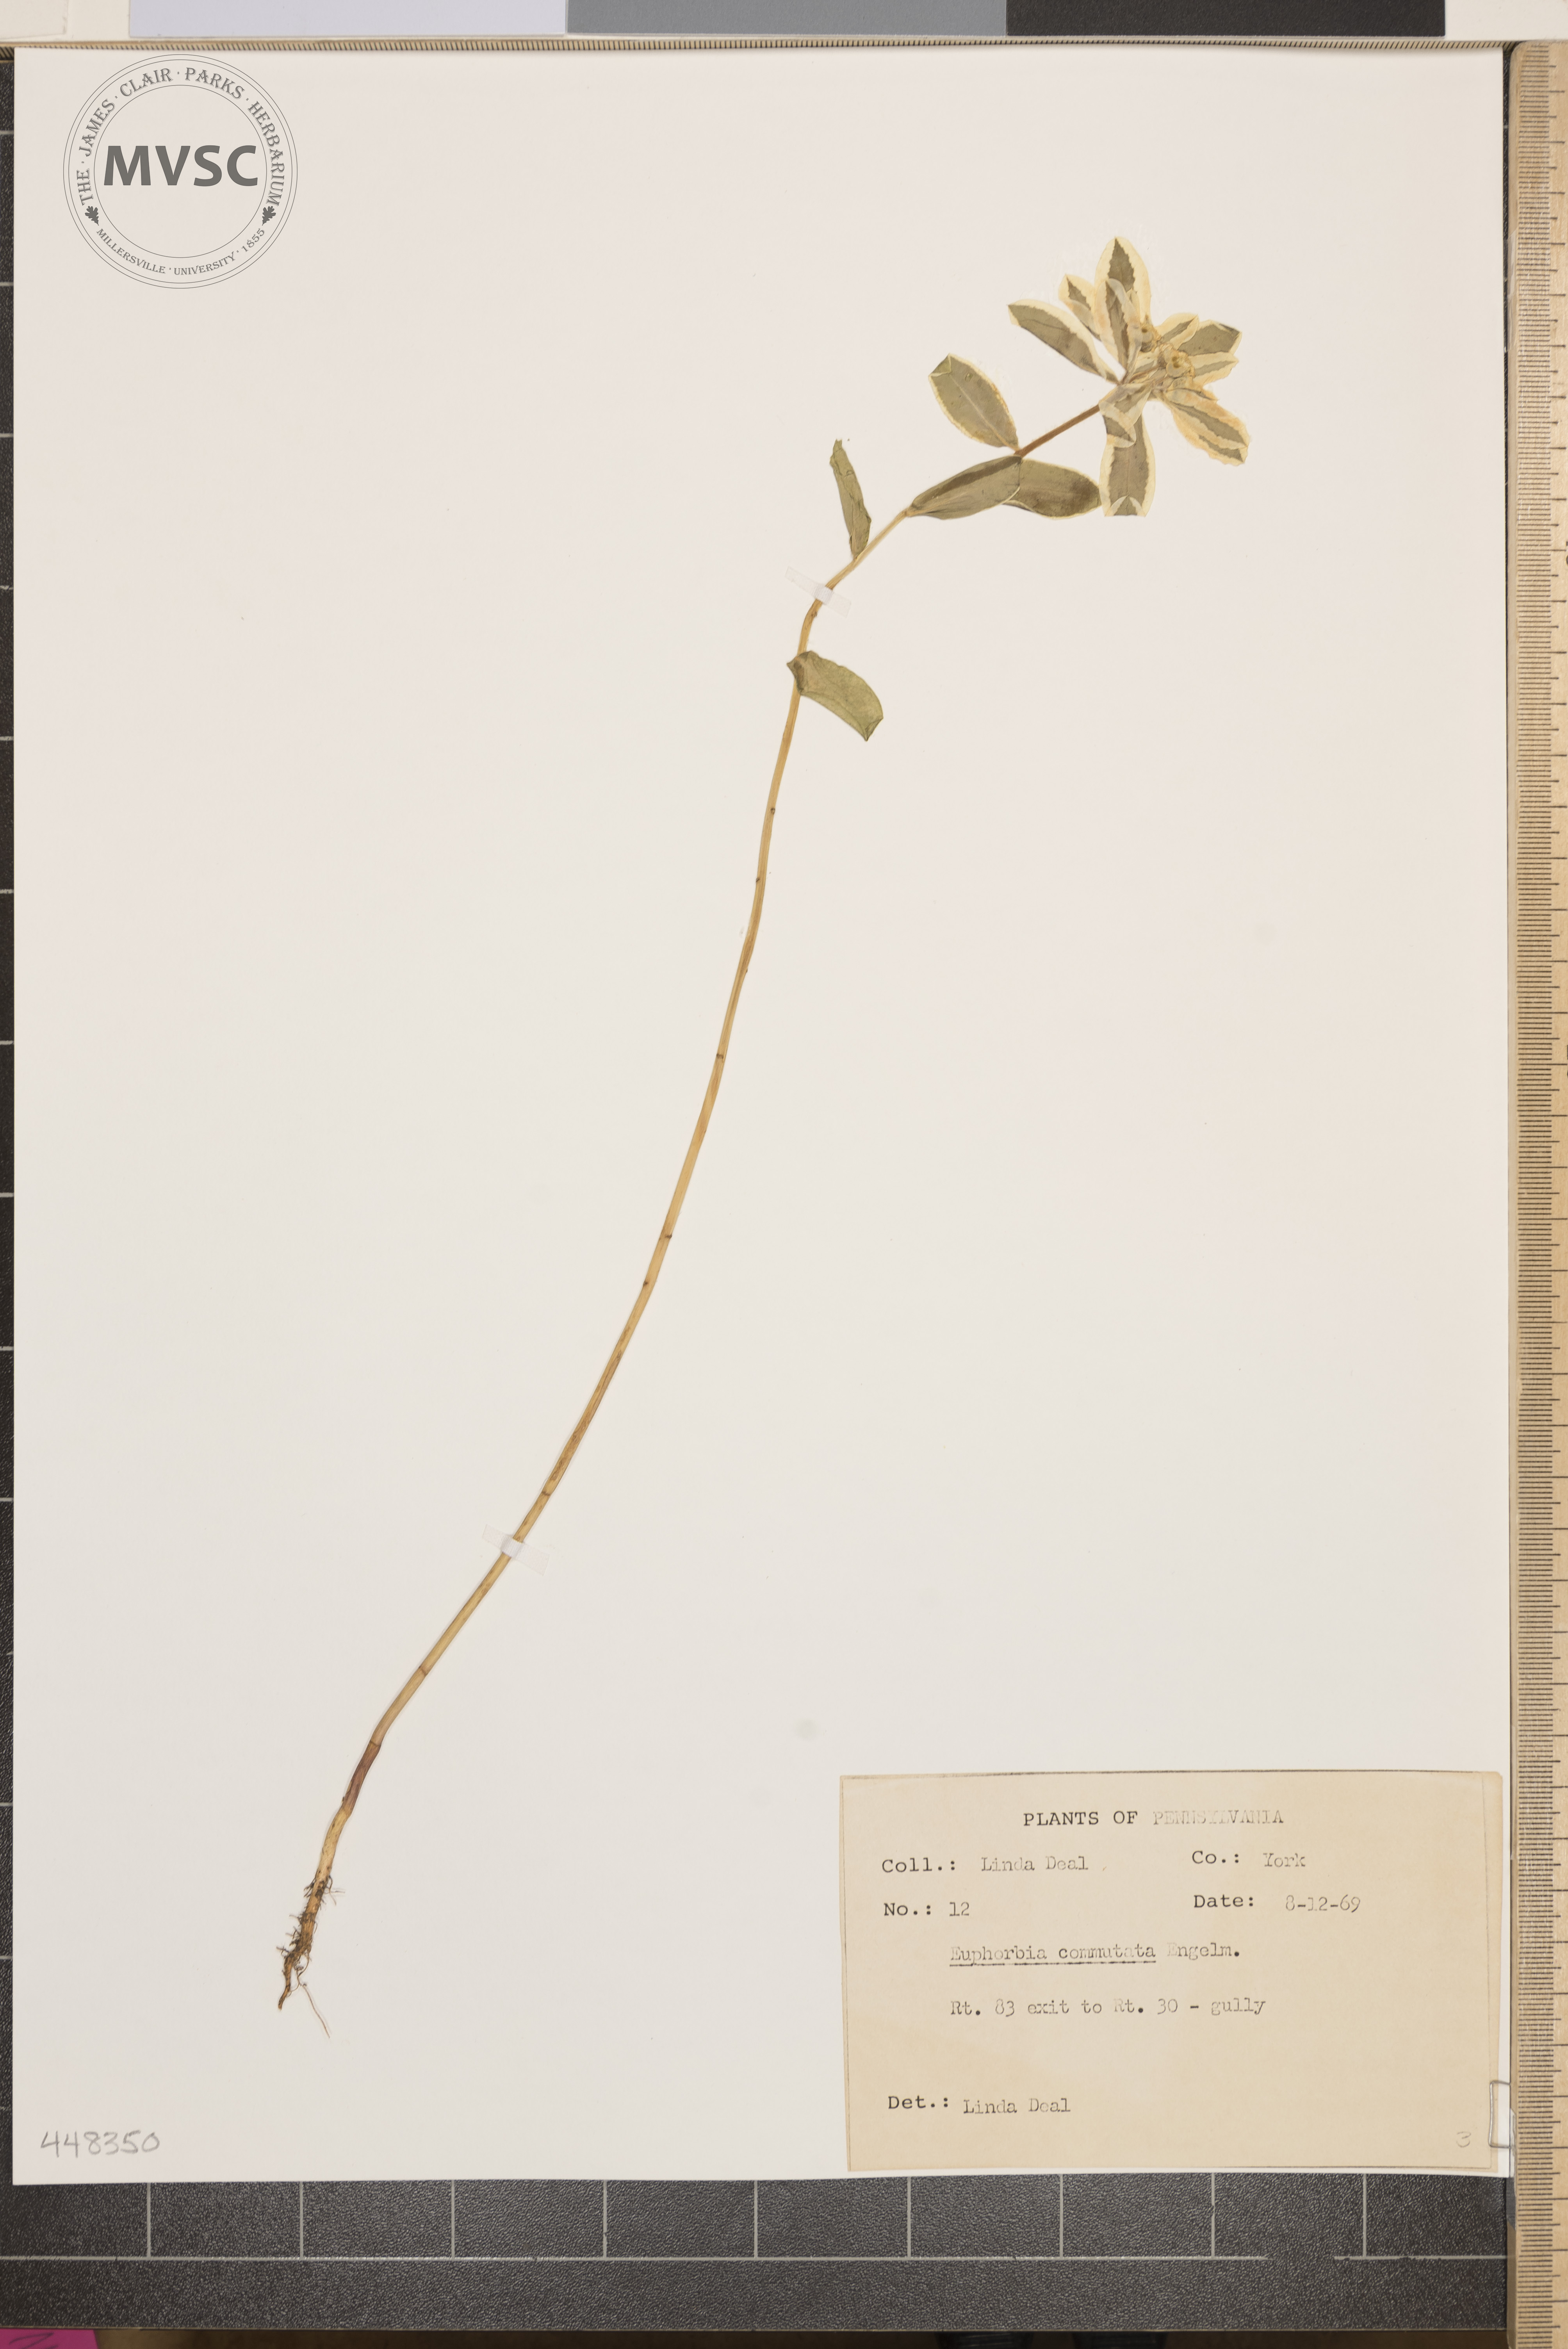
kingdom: Plantae
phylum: Tracheophyta
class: Magnoliopsida
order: Malpighiales
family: Euphorbiaceae
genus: Euphorbia
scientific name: Euphorbia marginata
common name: Ghostweed
